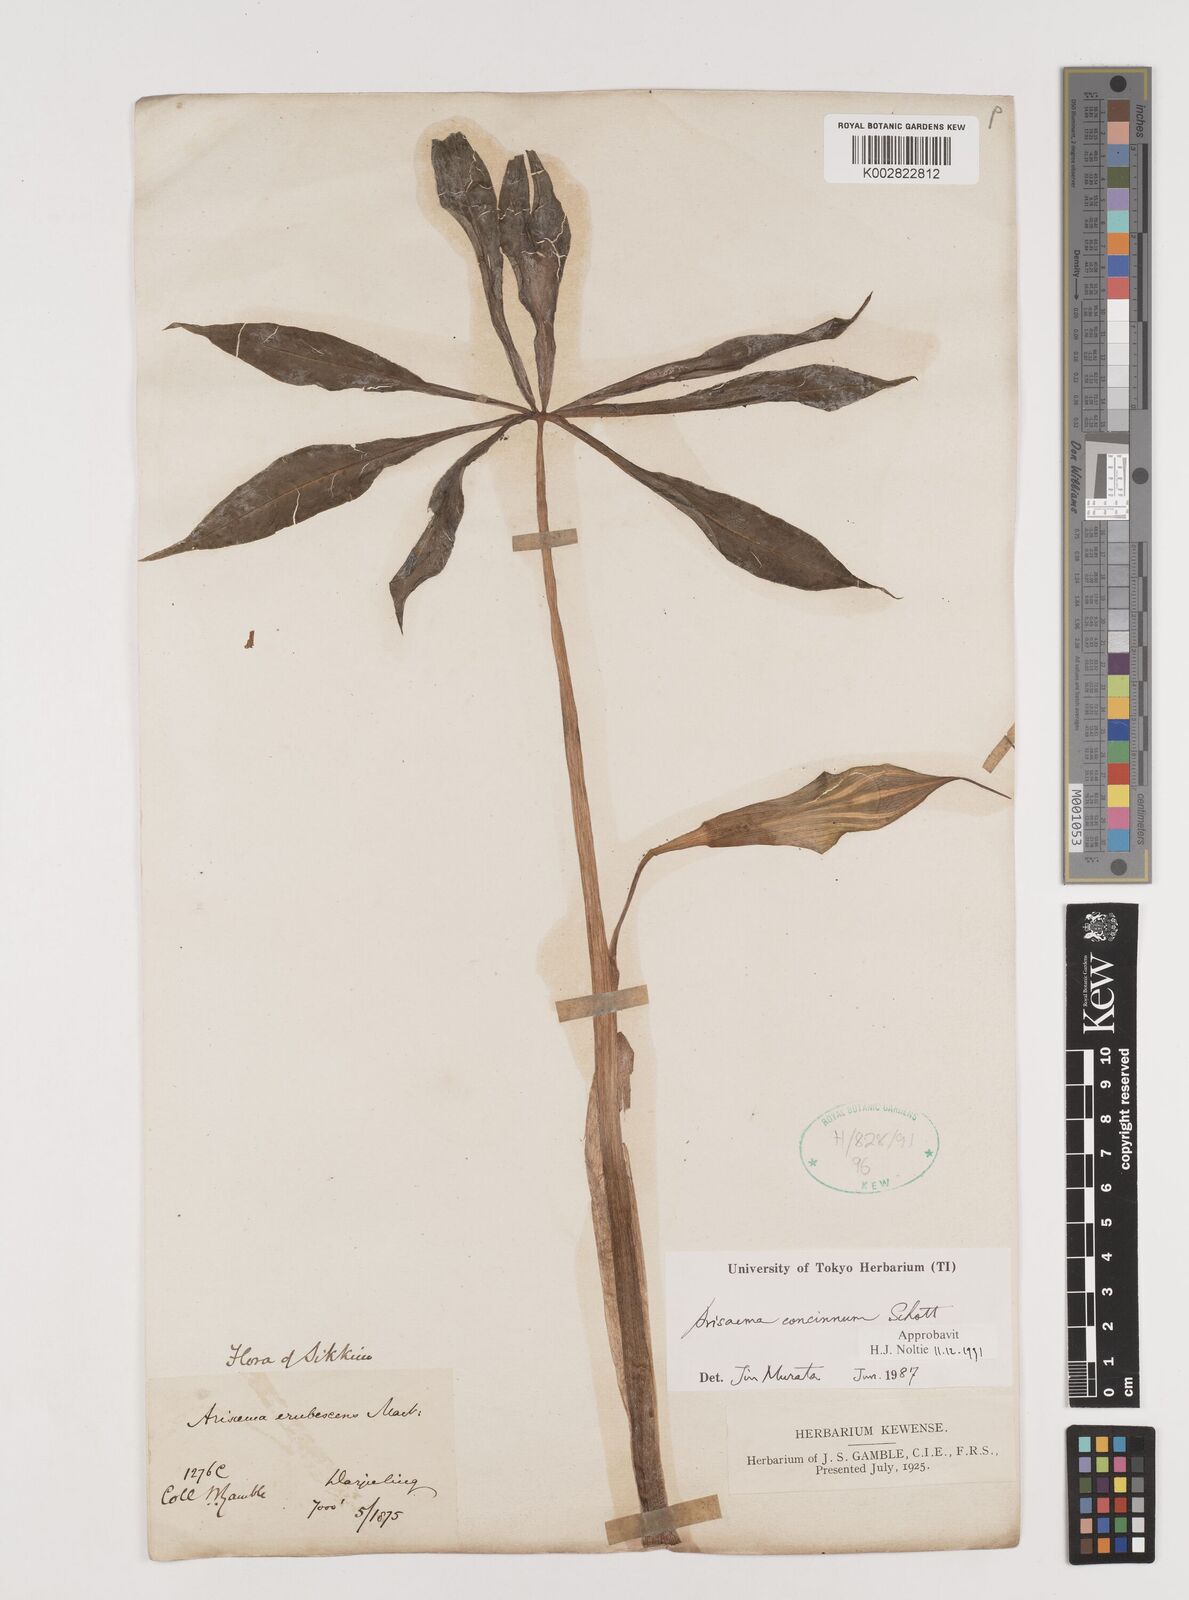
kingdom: Plantae
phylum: Tracheophyta
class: Liliopsida
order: Alismatales
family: Araceae
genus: Arisaema
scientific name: Arisaema concinnum
